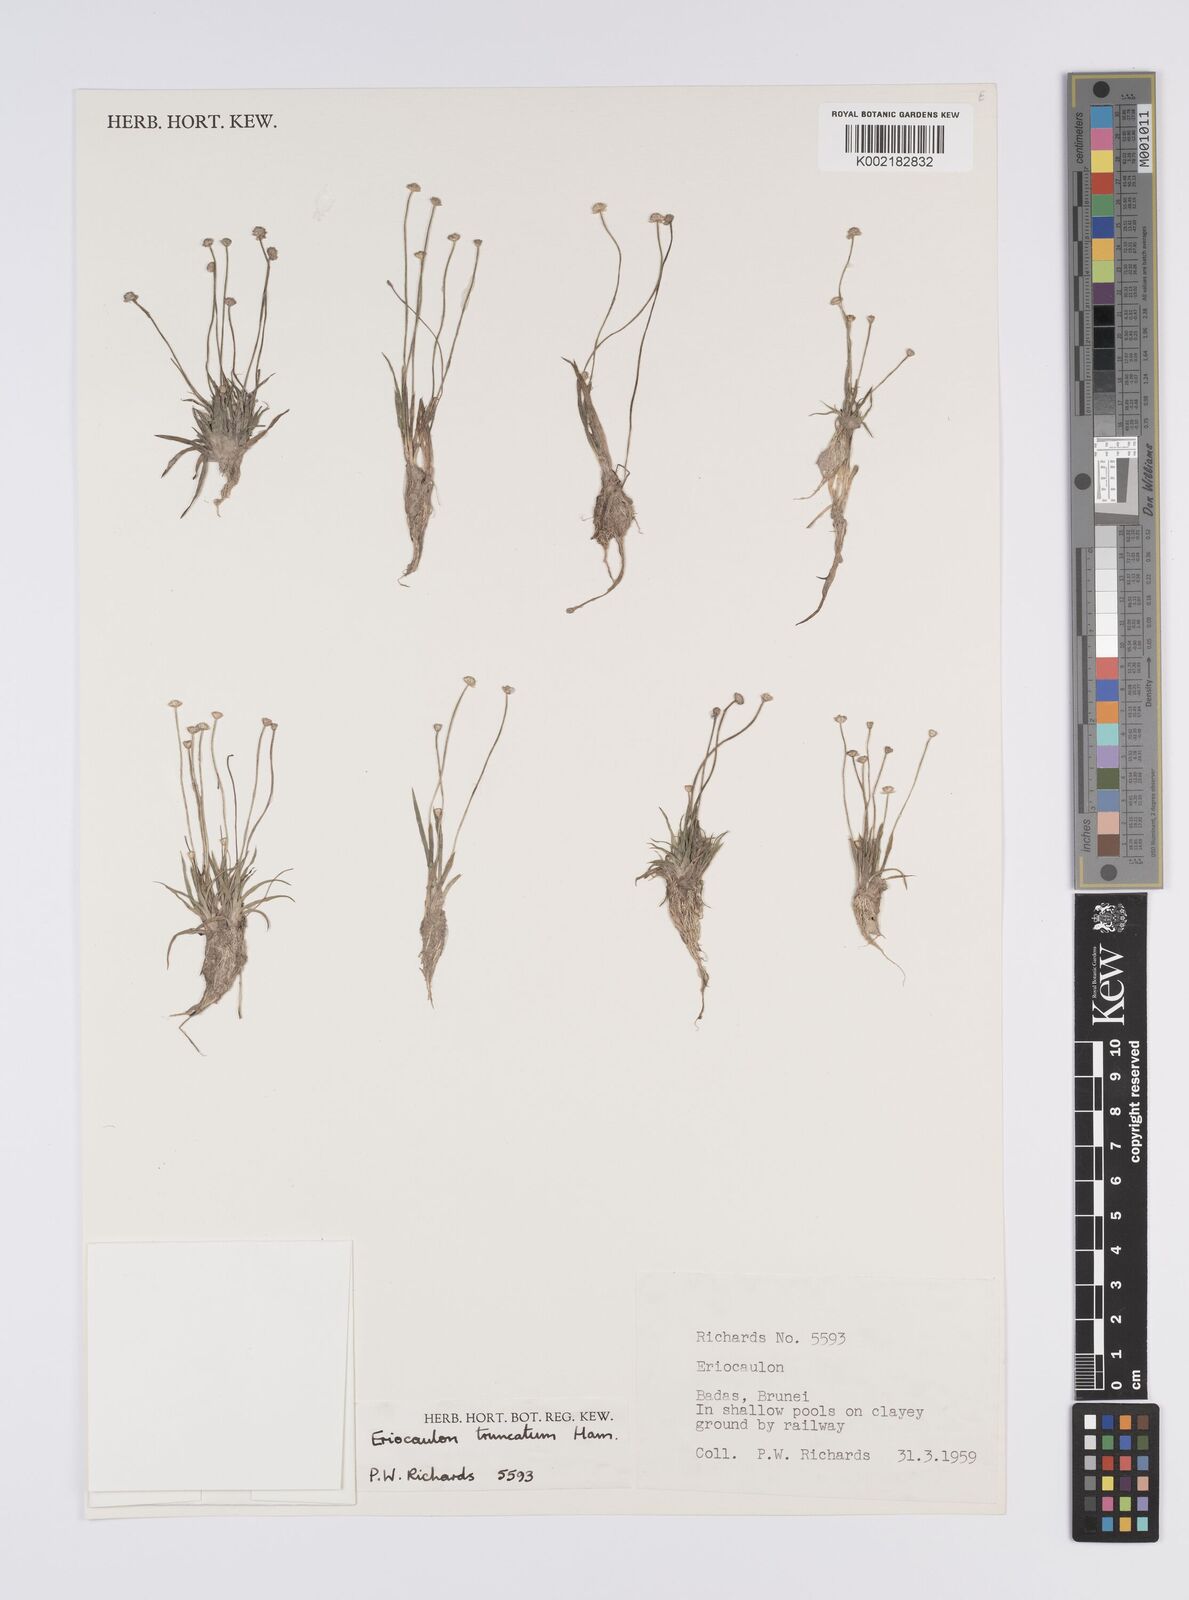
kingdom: Plantae
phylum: Tracheophyta
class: Liliopsida
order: Poales
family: Eriocaulaceae
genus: Eriocaulon
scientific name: Eriocaulon truncatum
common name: Short pipe-wort
